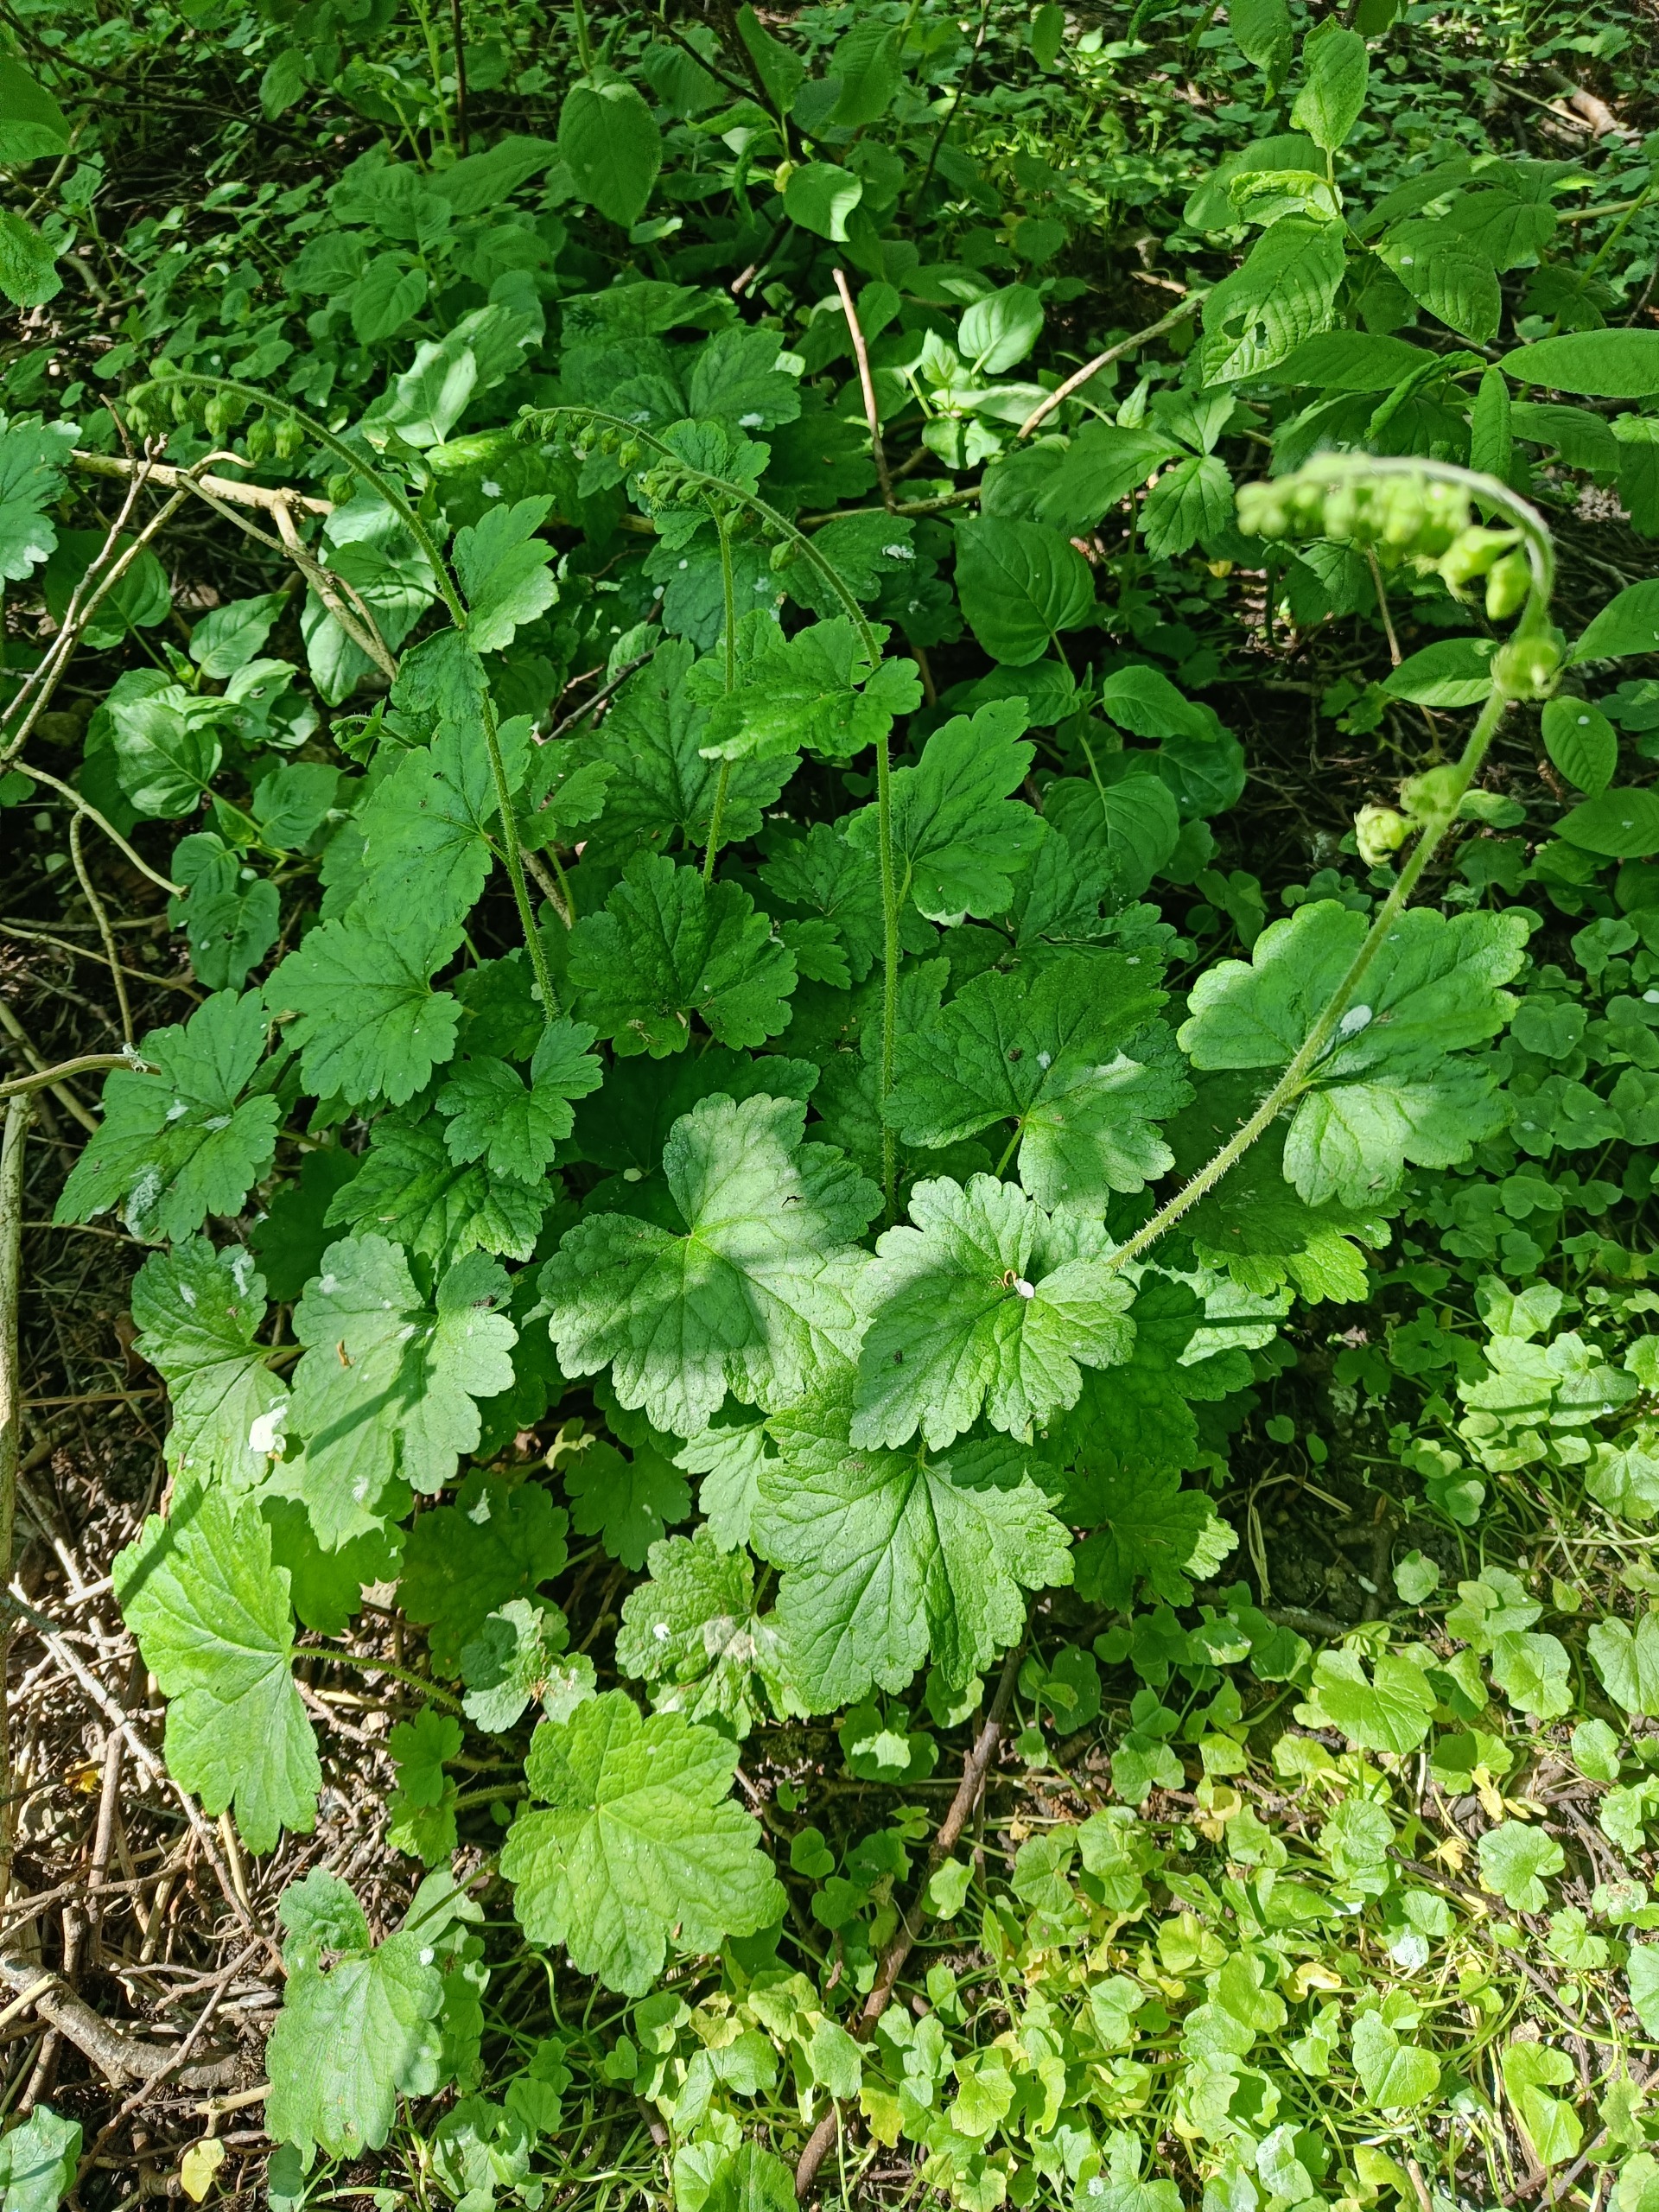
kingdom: Plantae
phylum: Tracheophyta
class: Magnoliopsida
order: Saxifragales
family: Saxifragaceae
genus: Tellima
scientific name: Tellima grandiflora
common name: Biskophat
